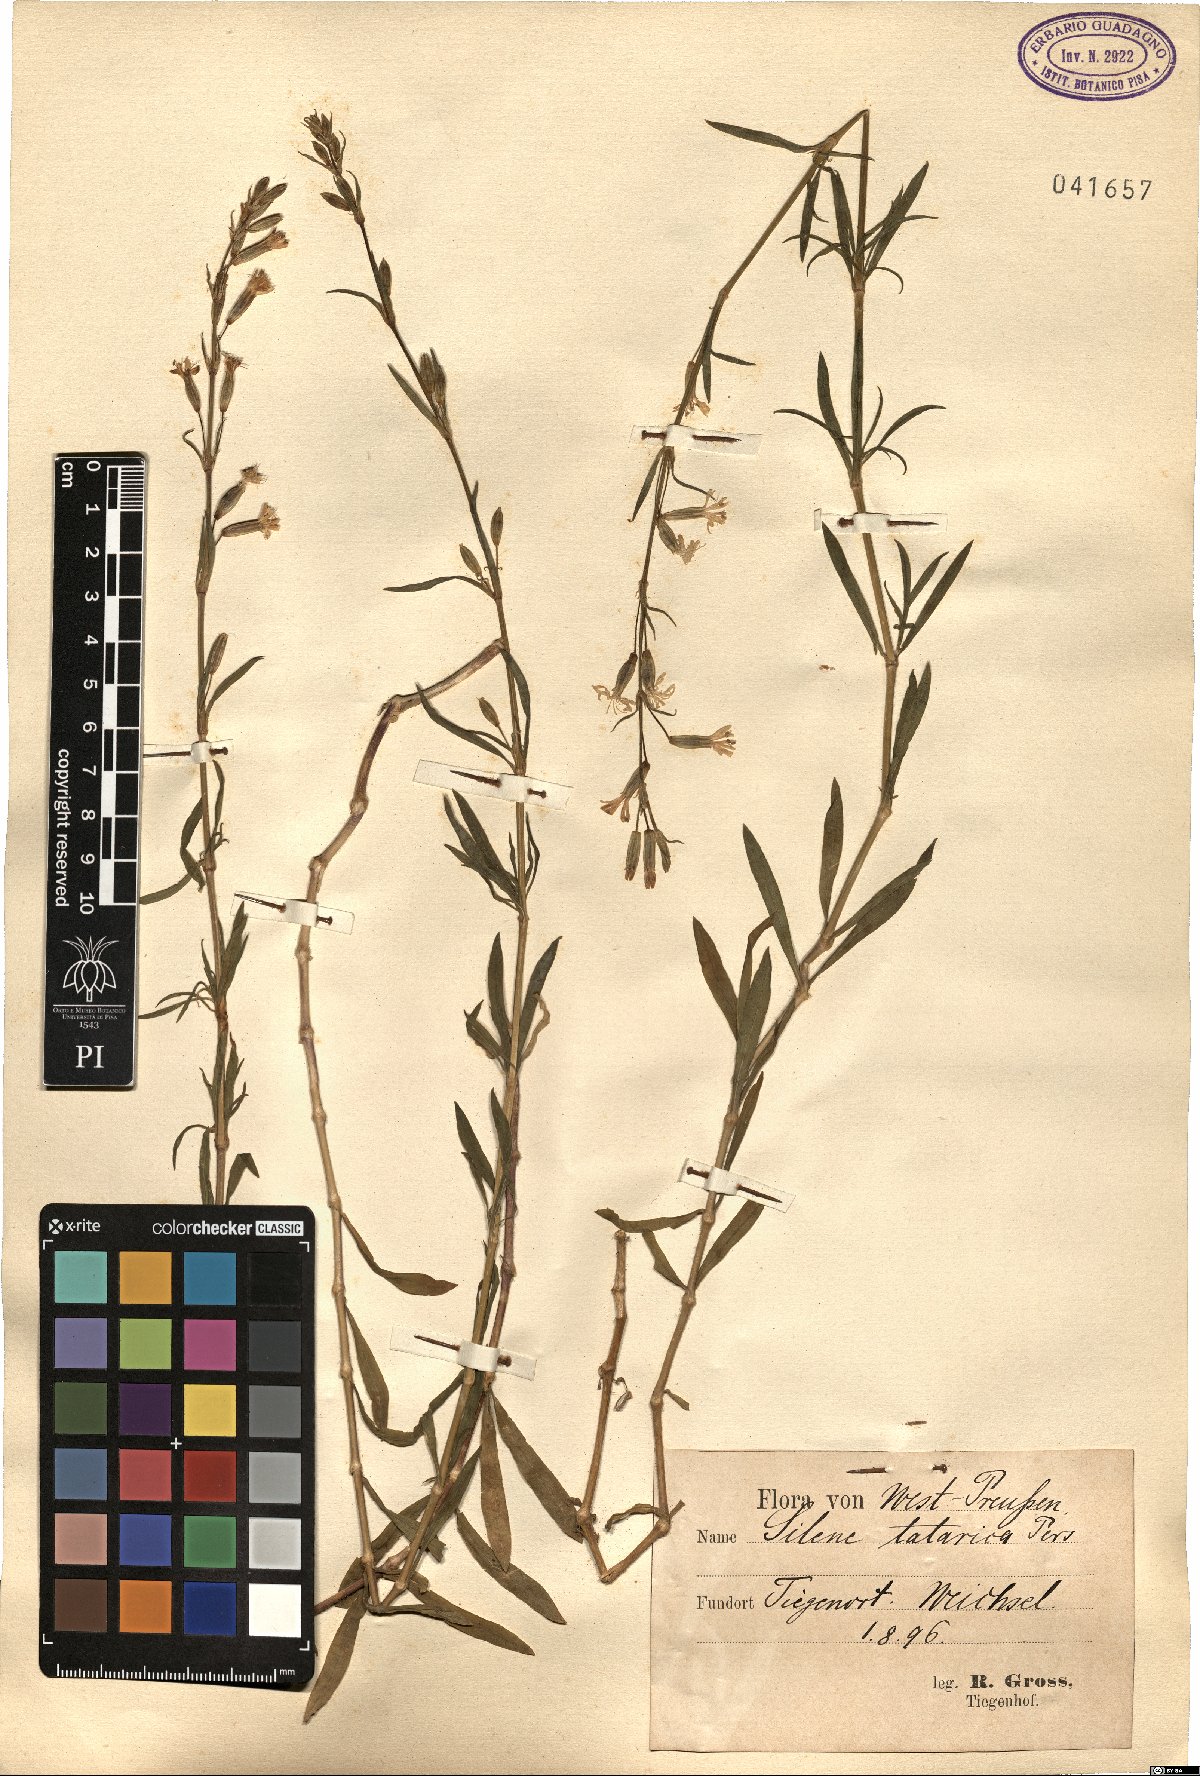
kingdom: Plantae
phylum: Tracheophyta
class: Magnoliopsida
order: Caryophyllales
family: Caryophyllaceae
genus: Silene
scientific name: Silene tatarica
